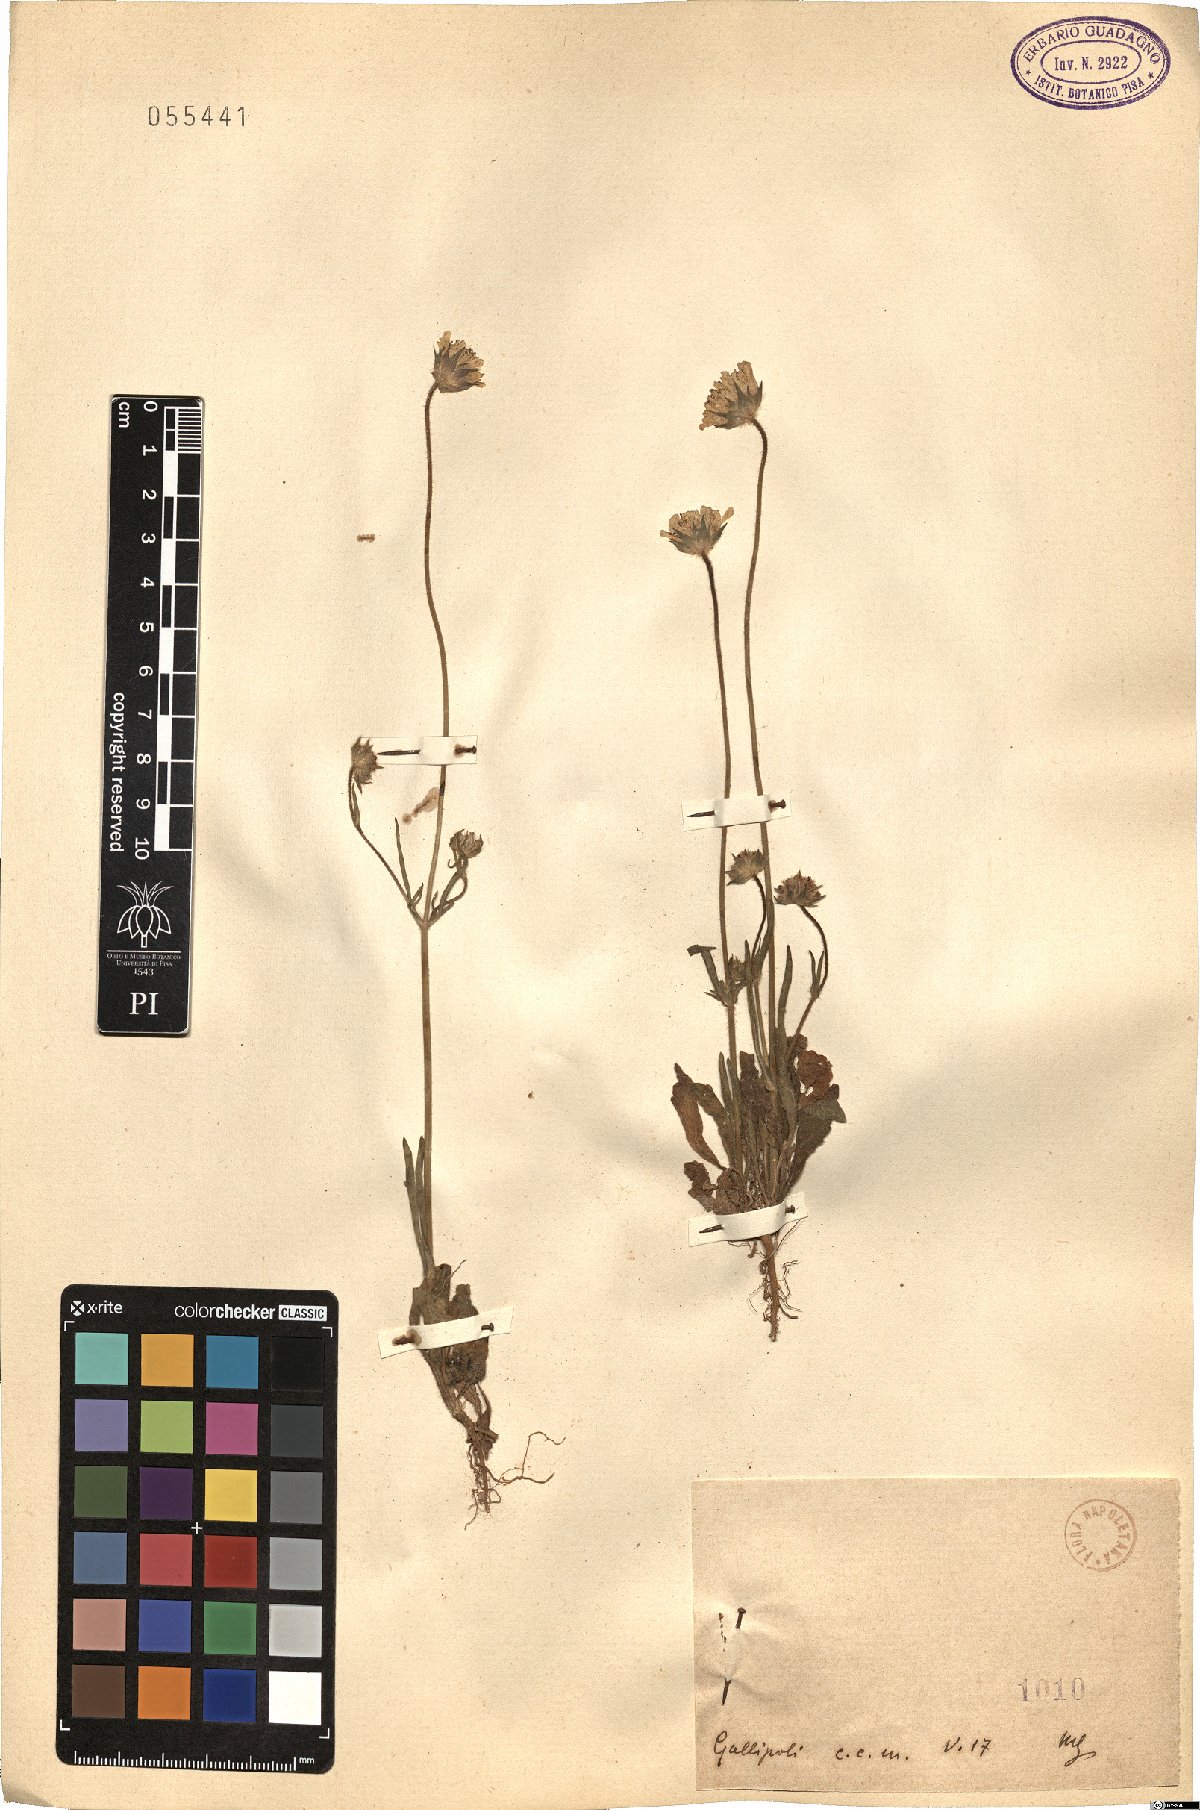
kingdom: Plantae
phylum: Tracheophyta
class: Magnoliopsida
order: Dipsacales
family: Caprifoliaceae
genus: Scabiosa
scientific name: Scabiosa
